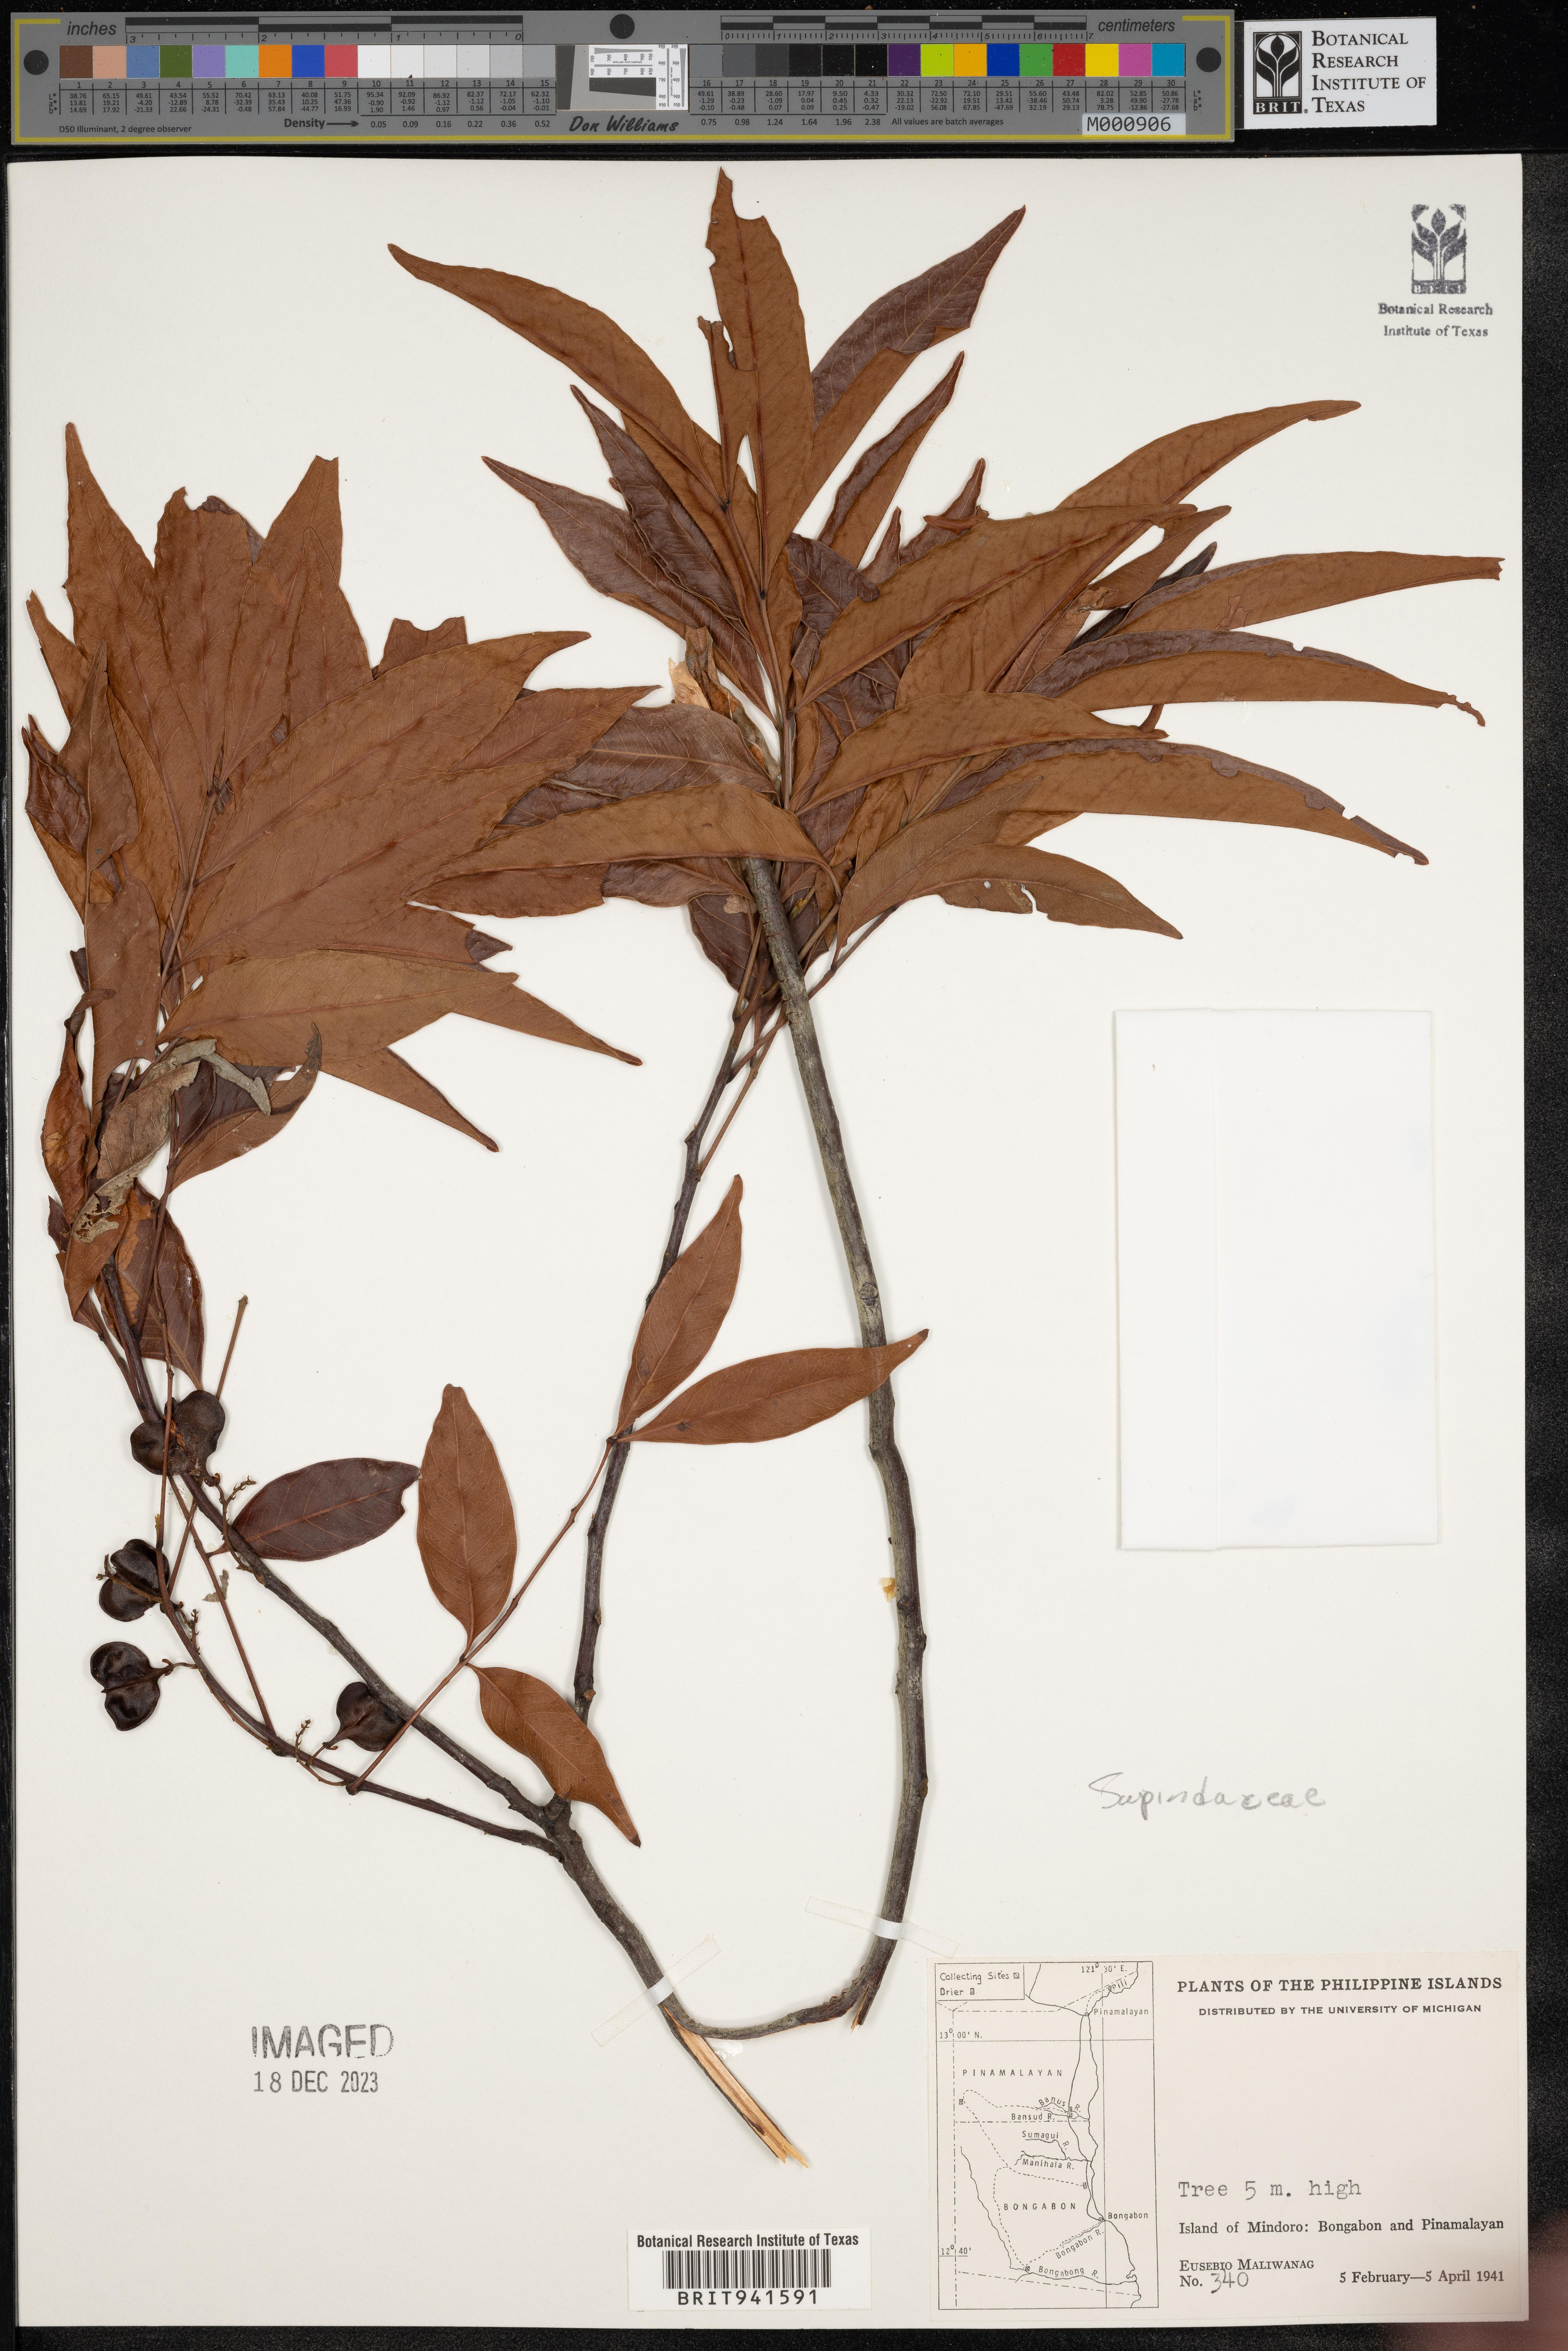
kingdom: Plantae
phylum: Tracheophyta
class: Magnoliopsida
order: Sapindales
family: Sapindaceae
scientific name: Sapindaceae
